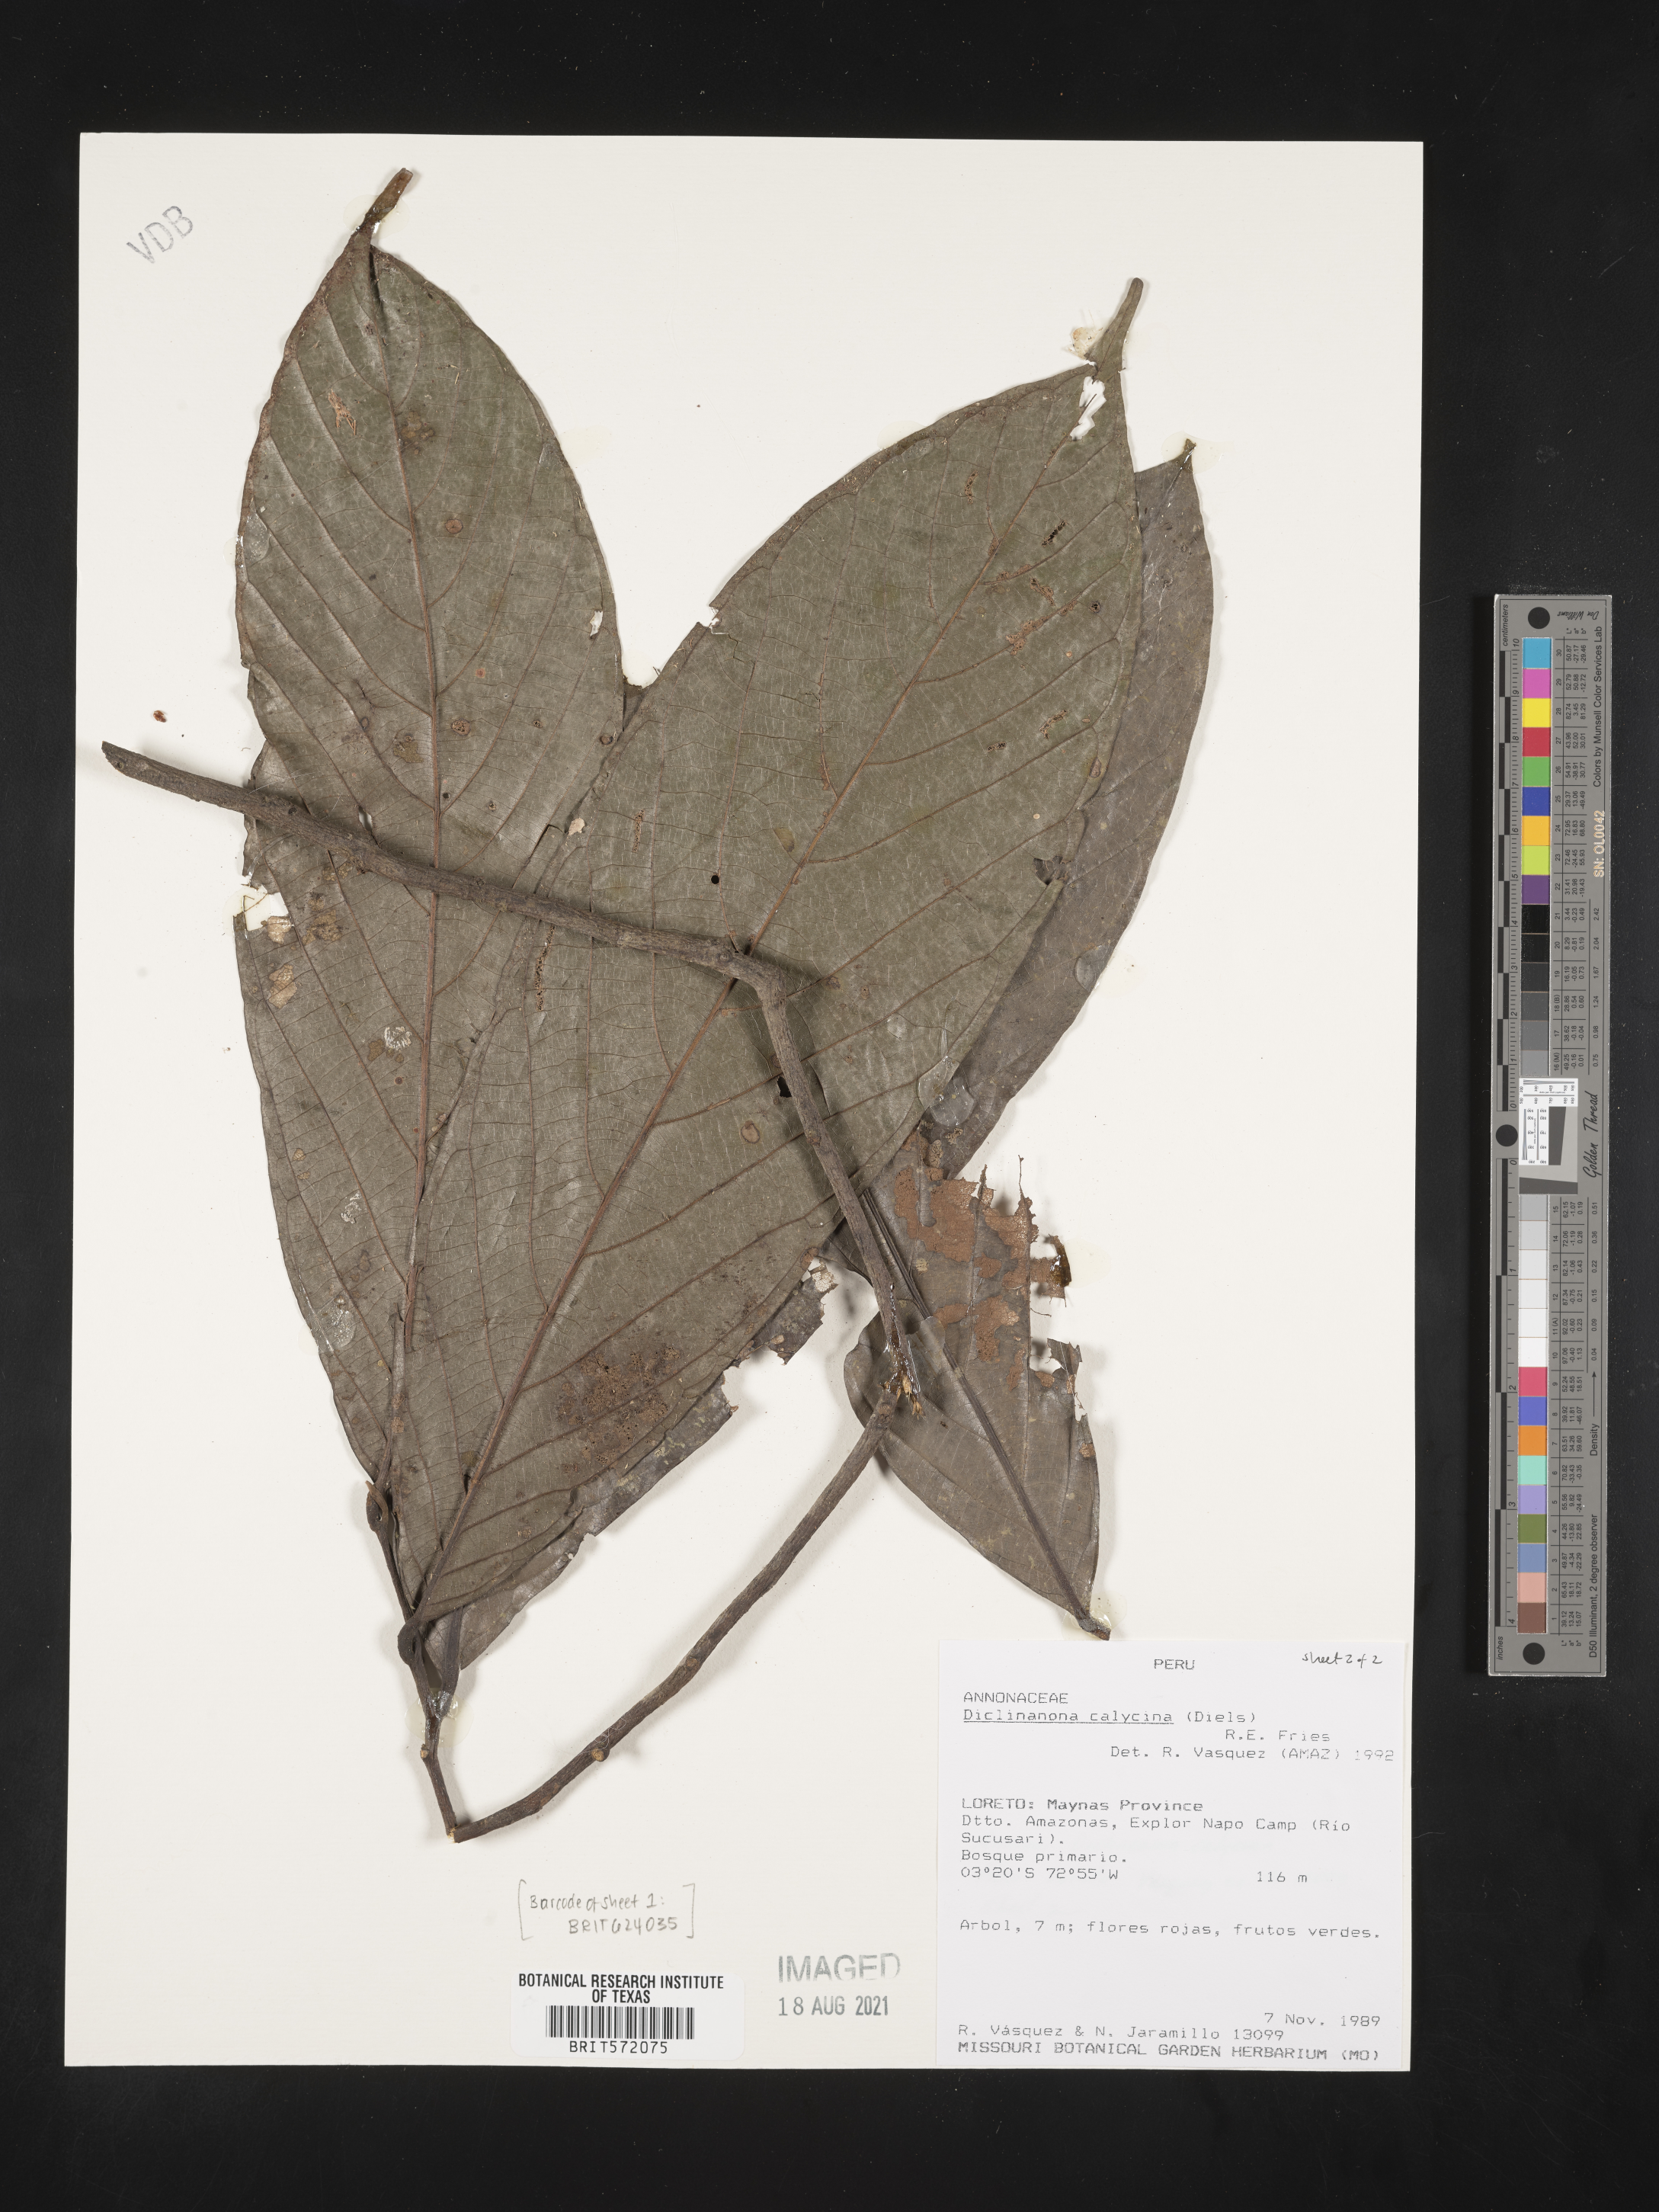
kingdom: Plantae
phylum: Tracheophyta
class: Magnoliopsida
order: Magnoliales
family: Annonaceae
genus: Diclinanona
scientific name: Diclinanona calycina
